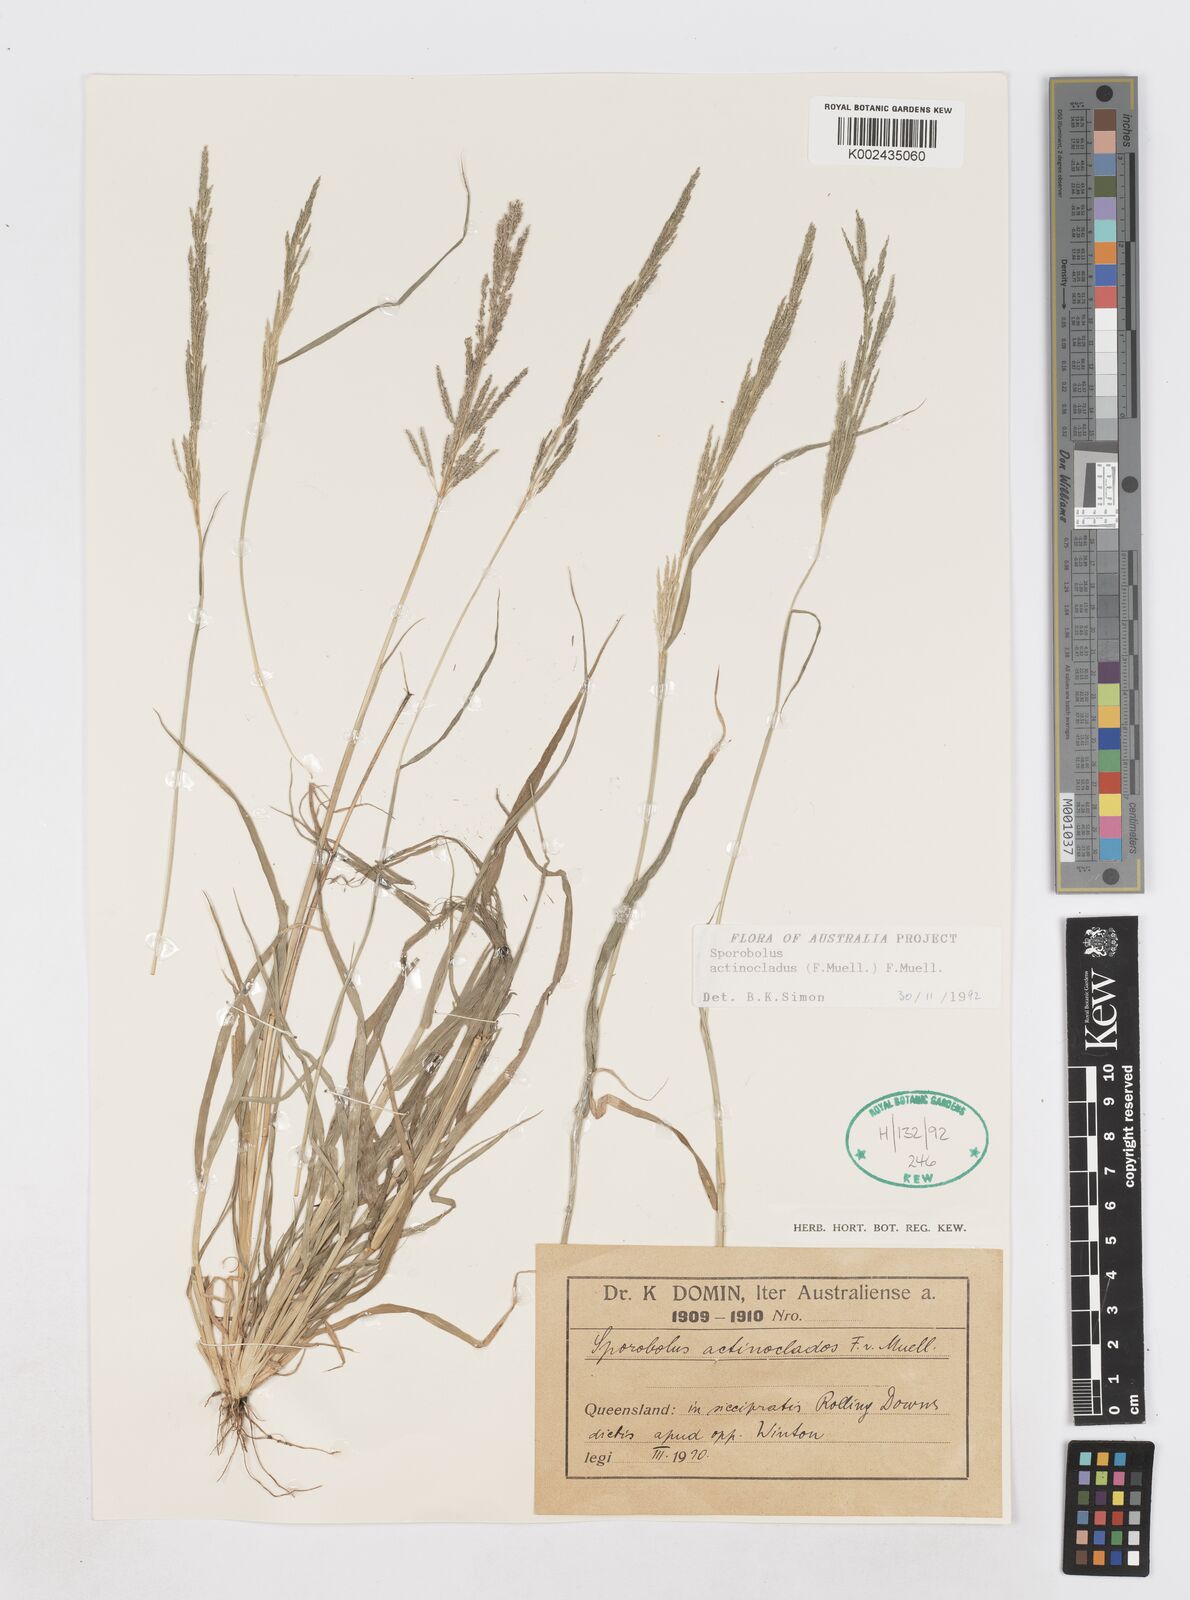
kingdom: Plantae
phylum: Tracheophyta
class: Liliopsida
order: Poales
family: Poaceae
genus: Sporobolus
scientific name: Sporobolus actinocladus
